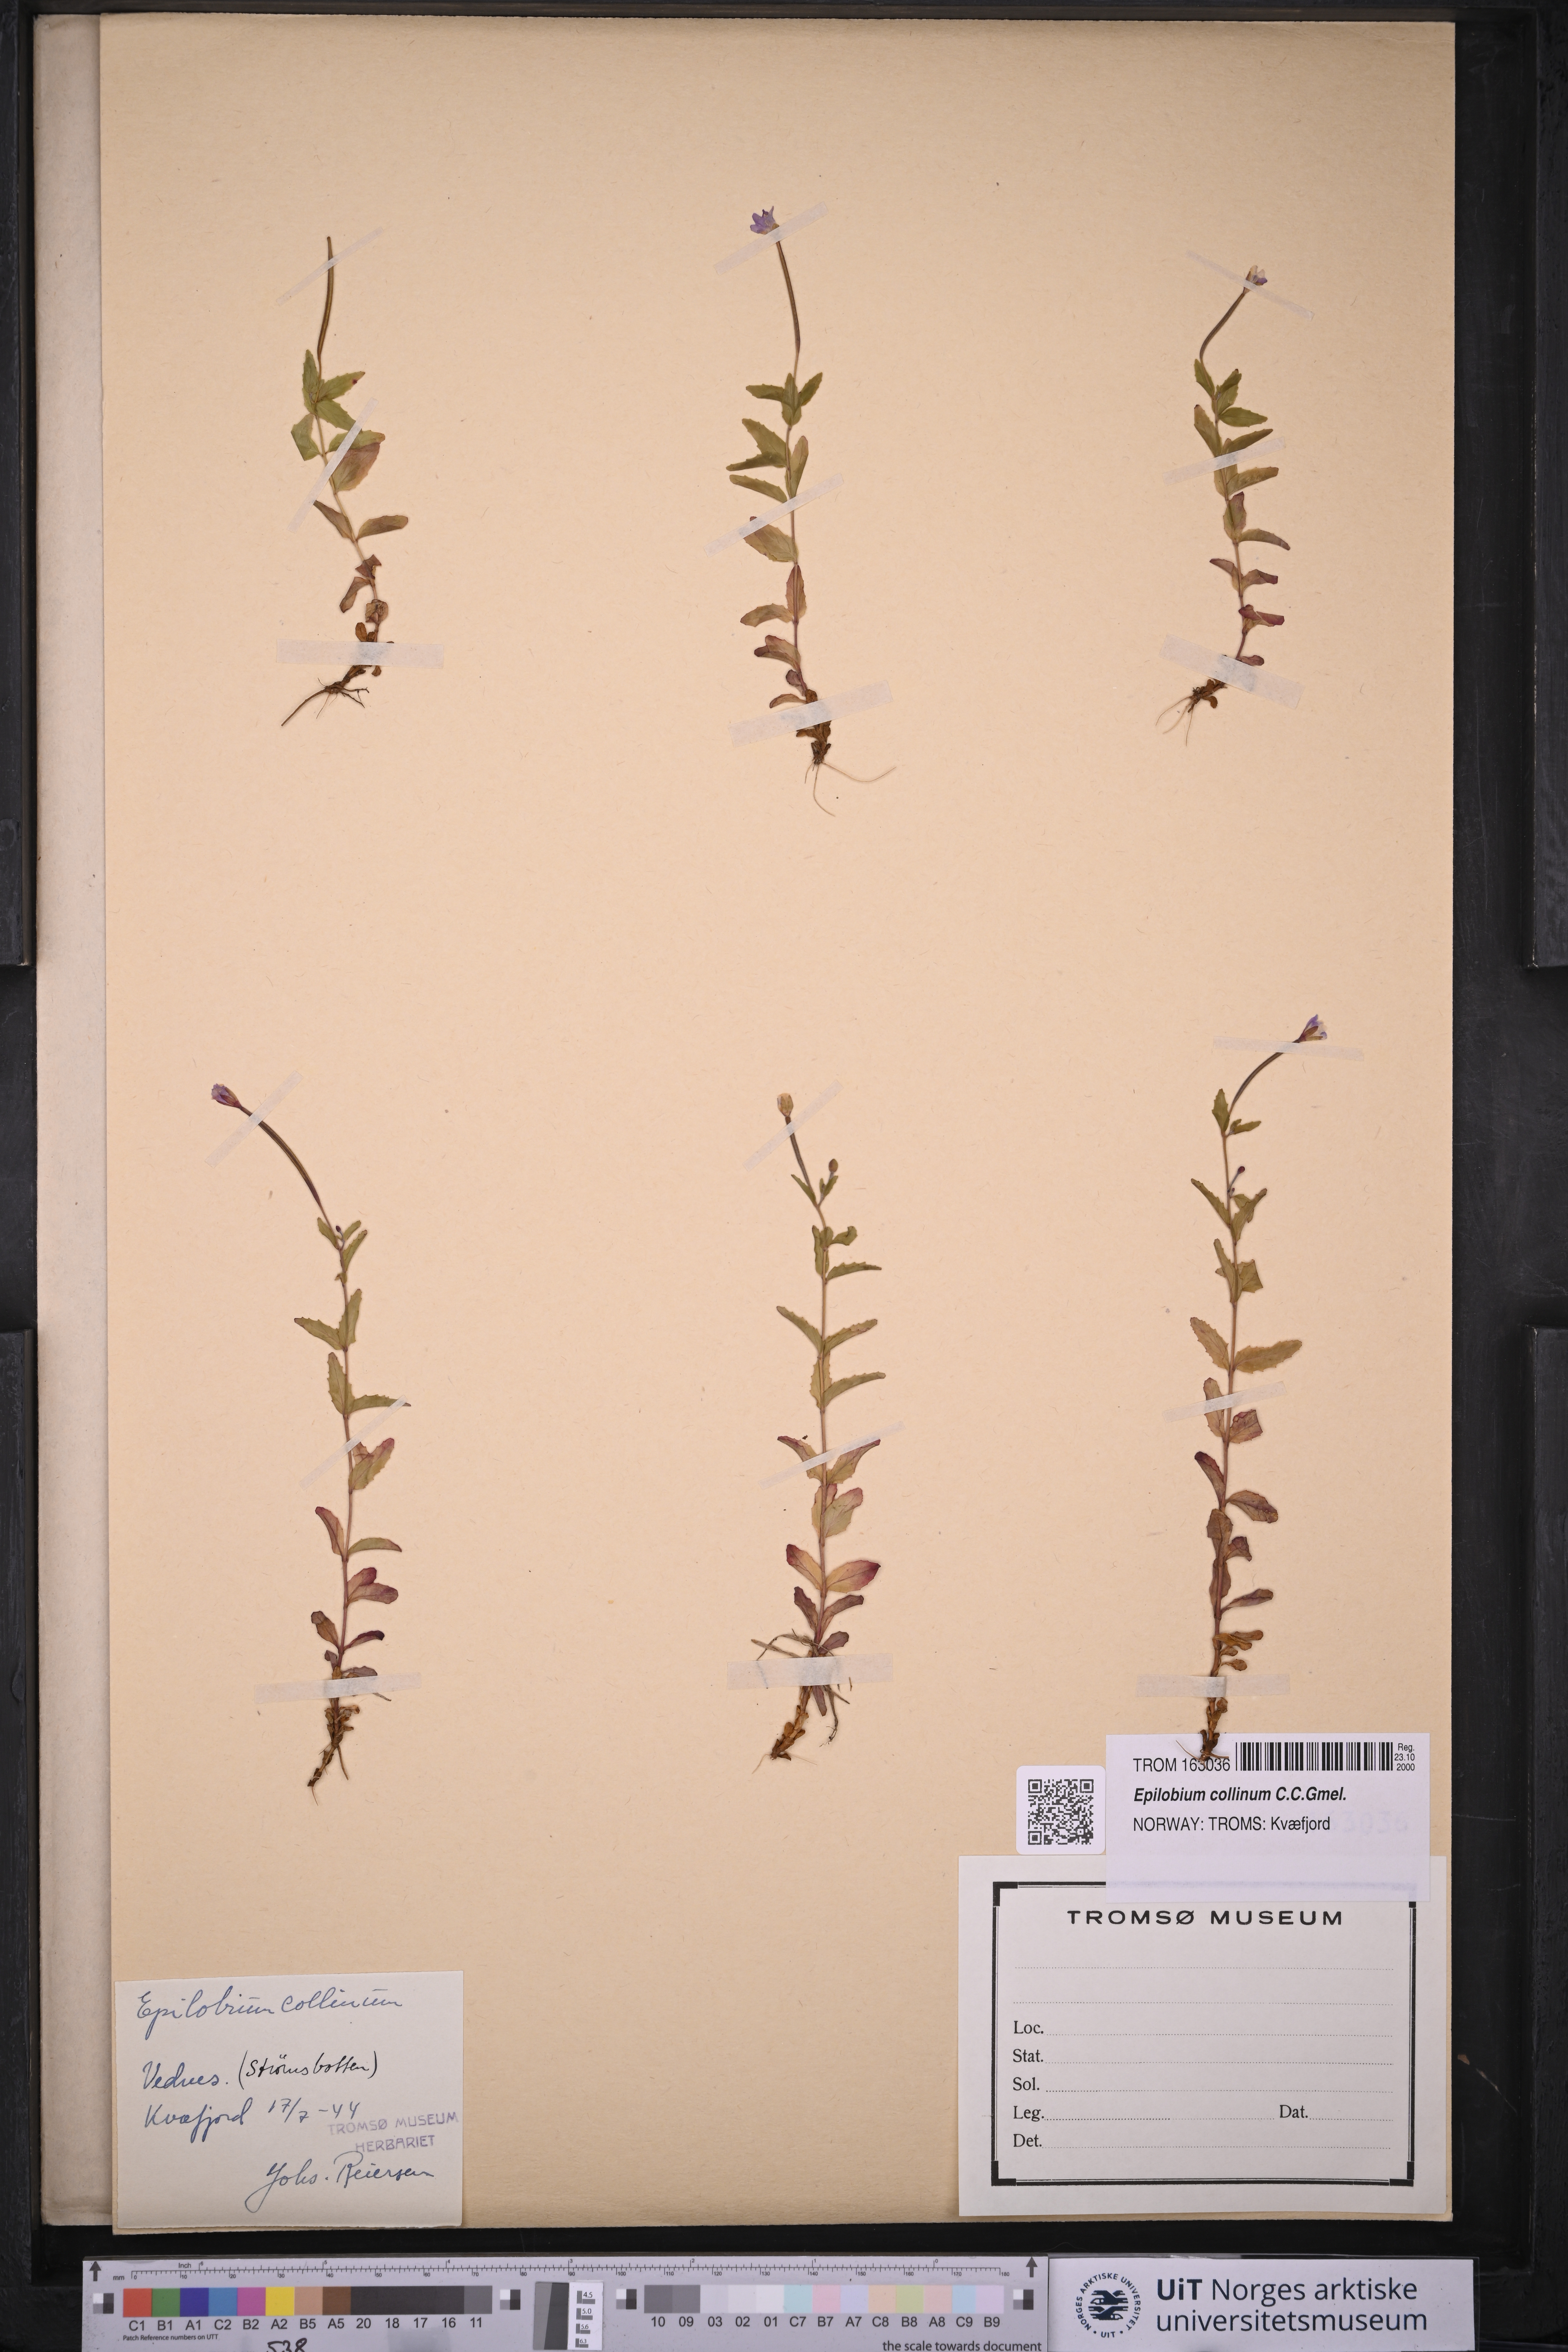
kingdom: Plantae
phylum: Tracheophyta
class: Magnoliopsida
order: Myrtales
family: Onagraceae
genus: Epilobium
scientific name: Epilobium collinum
